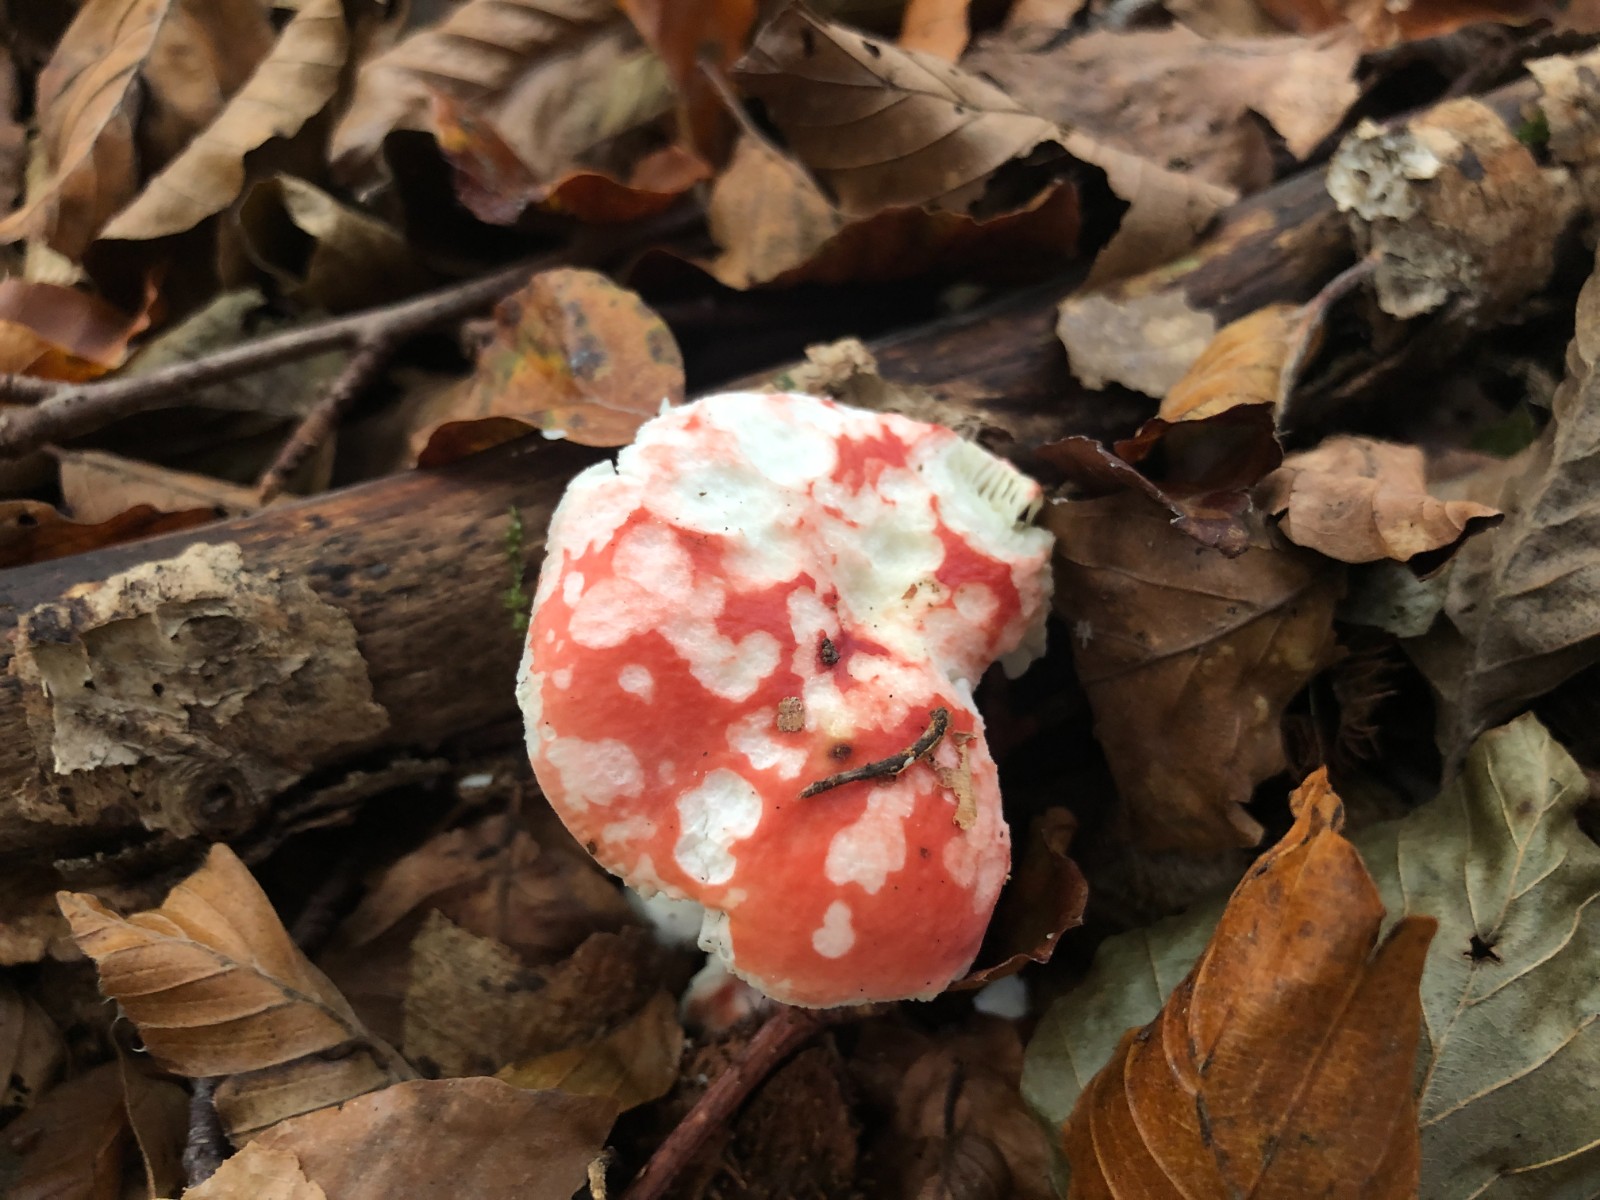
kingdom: Fungi
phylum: Basidiomycota
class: Agaricomycetes
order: Russulales
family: Russulaceae
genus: Russula
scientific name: Russula silvestris
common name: mellemstor gift-skørhat
